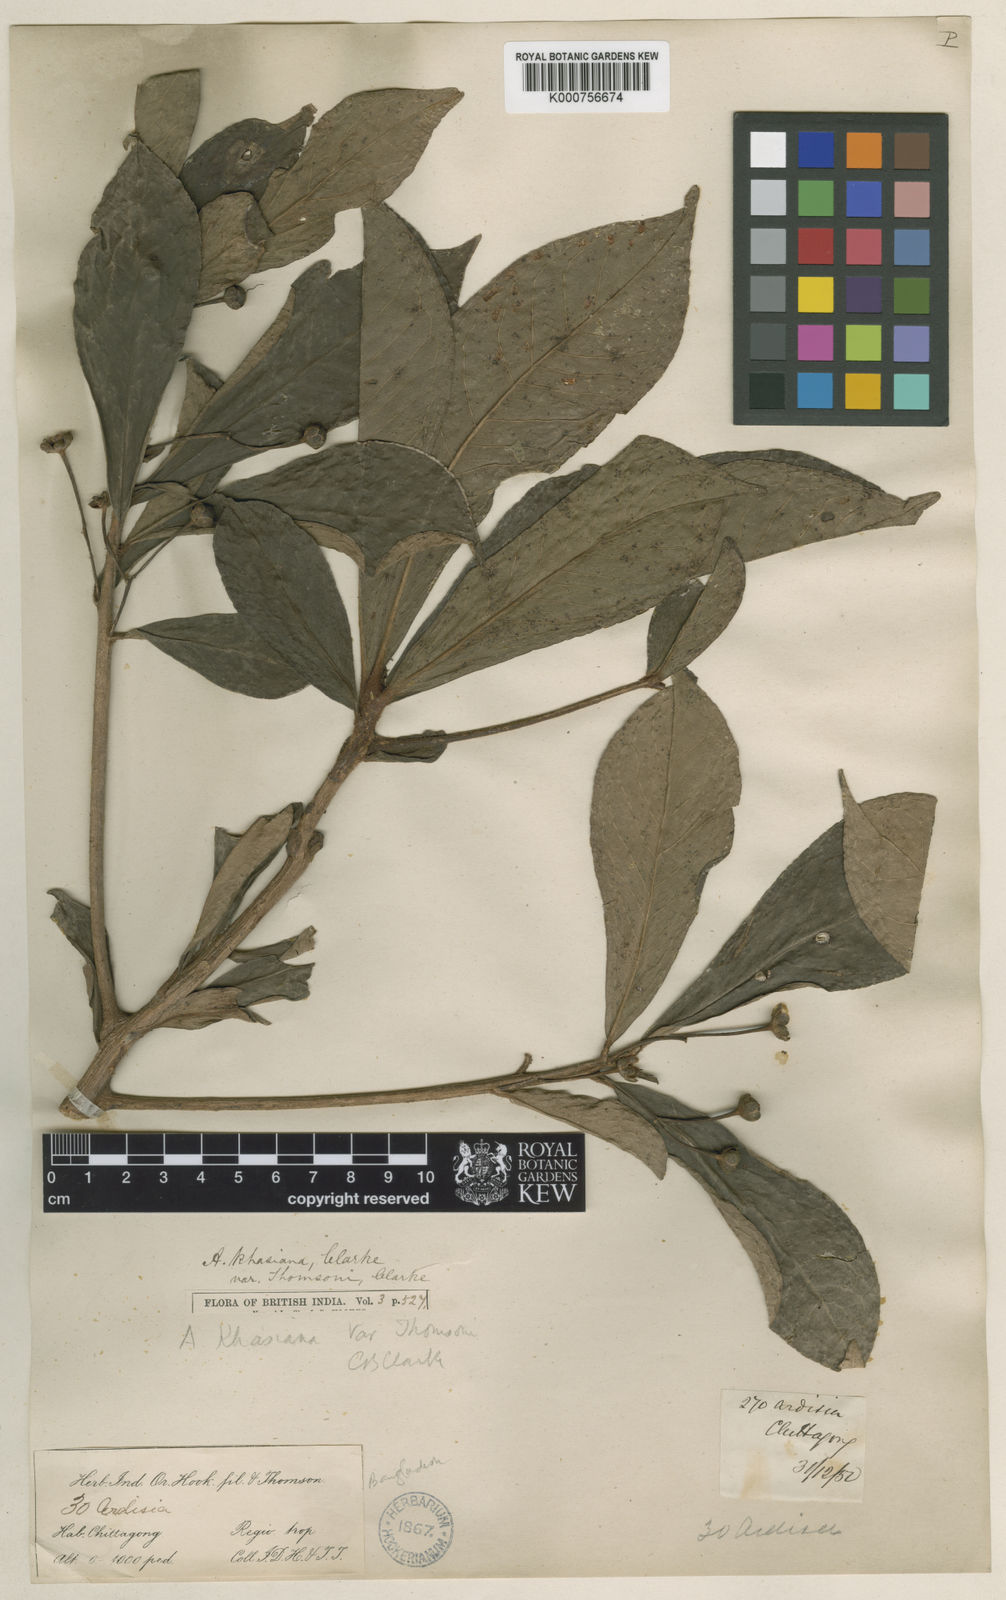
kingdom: Plantae
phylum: Tracheophyta
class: Magnoliopsida
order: Ericales
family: Primulaceae
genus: Ardisia
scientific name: Ardisia thomsonii
